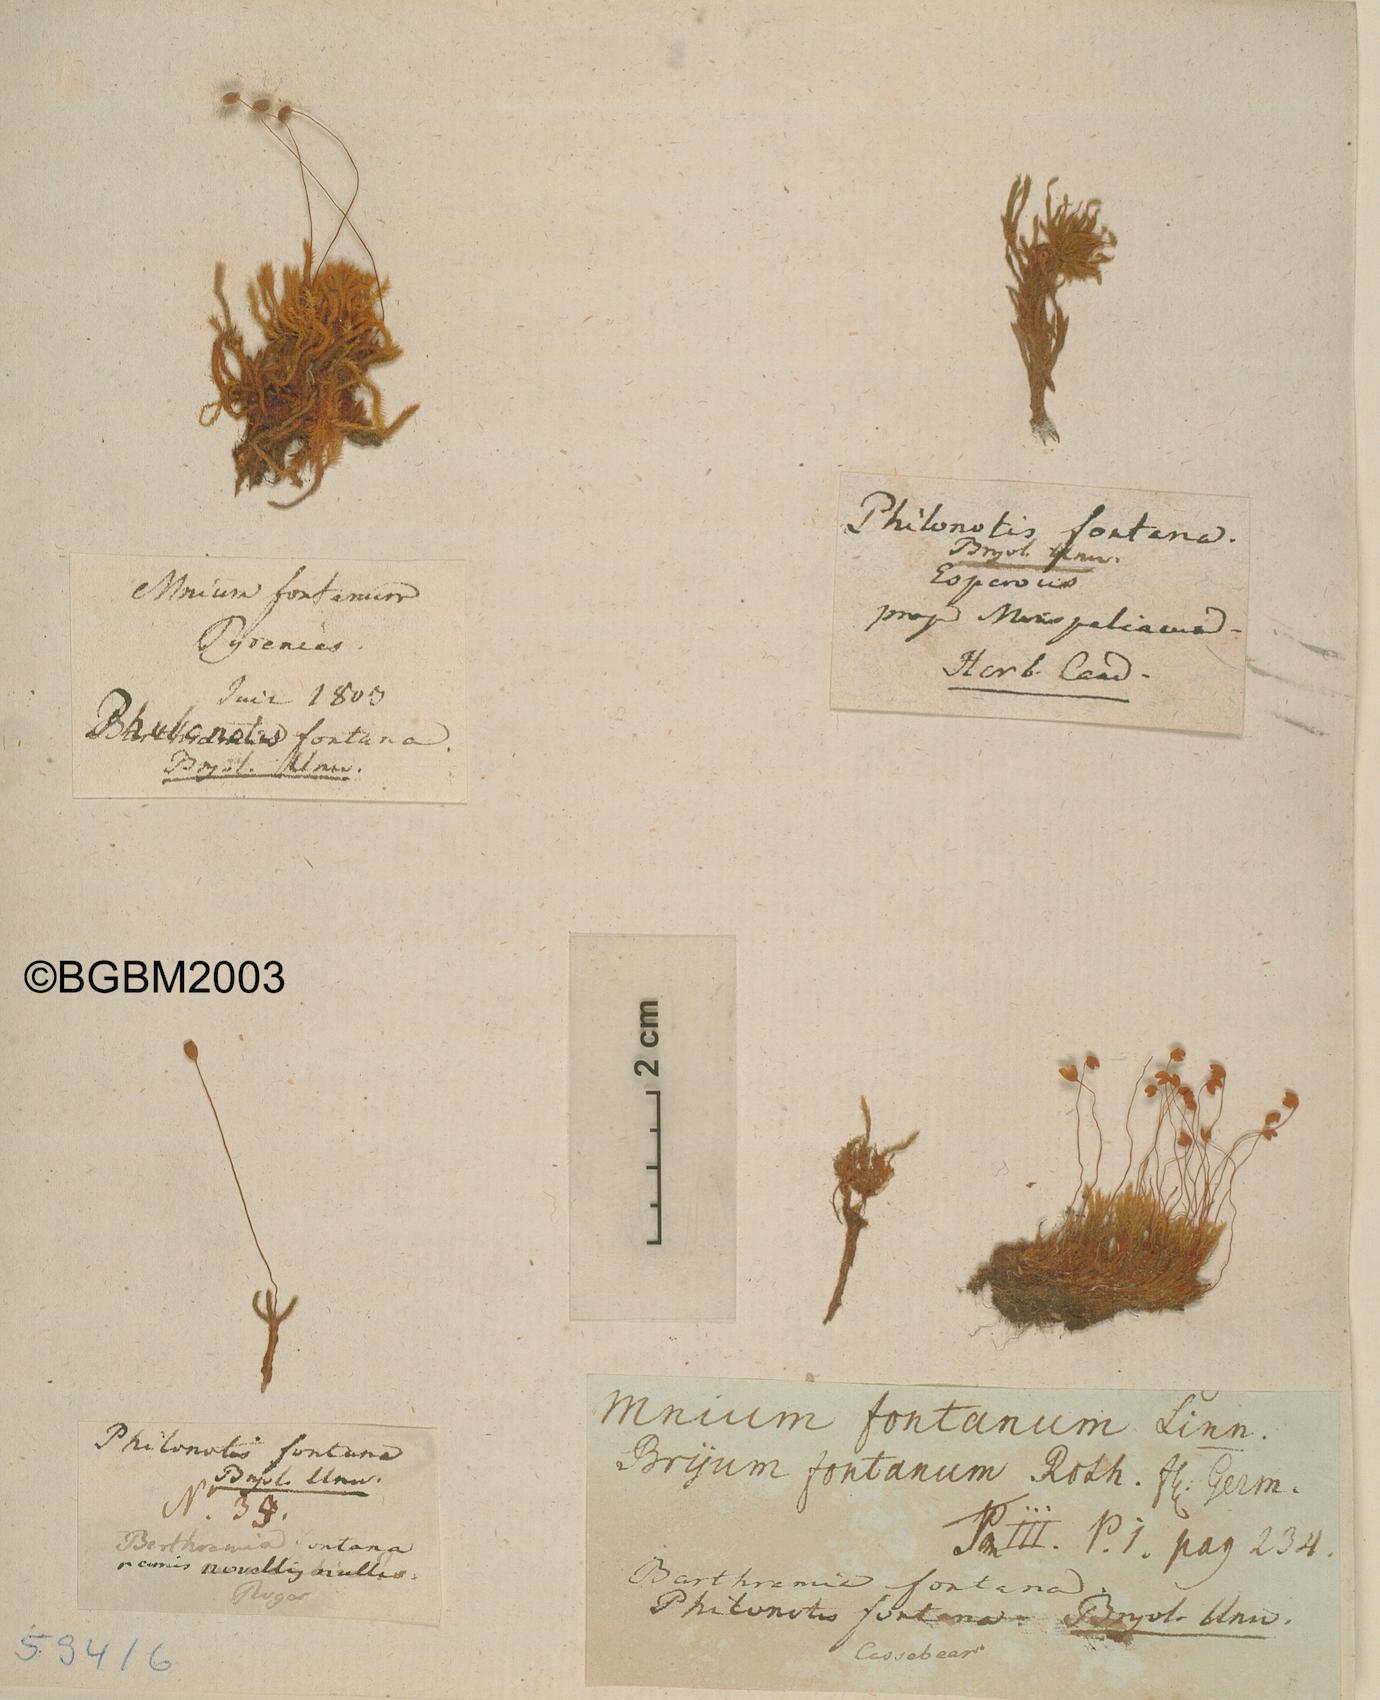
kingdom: Plantae
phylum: Bryophyta
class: Bryopsida
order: Bartramiales
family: Bartramiaceae
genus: Philonotis
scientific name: Philonotis fontana
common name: Fountain apple-moss
